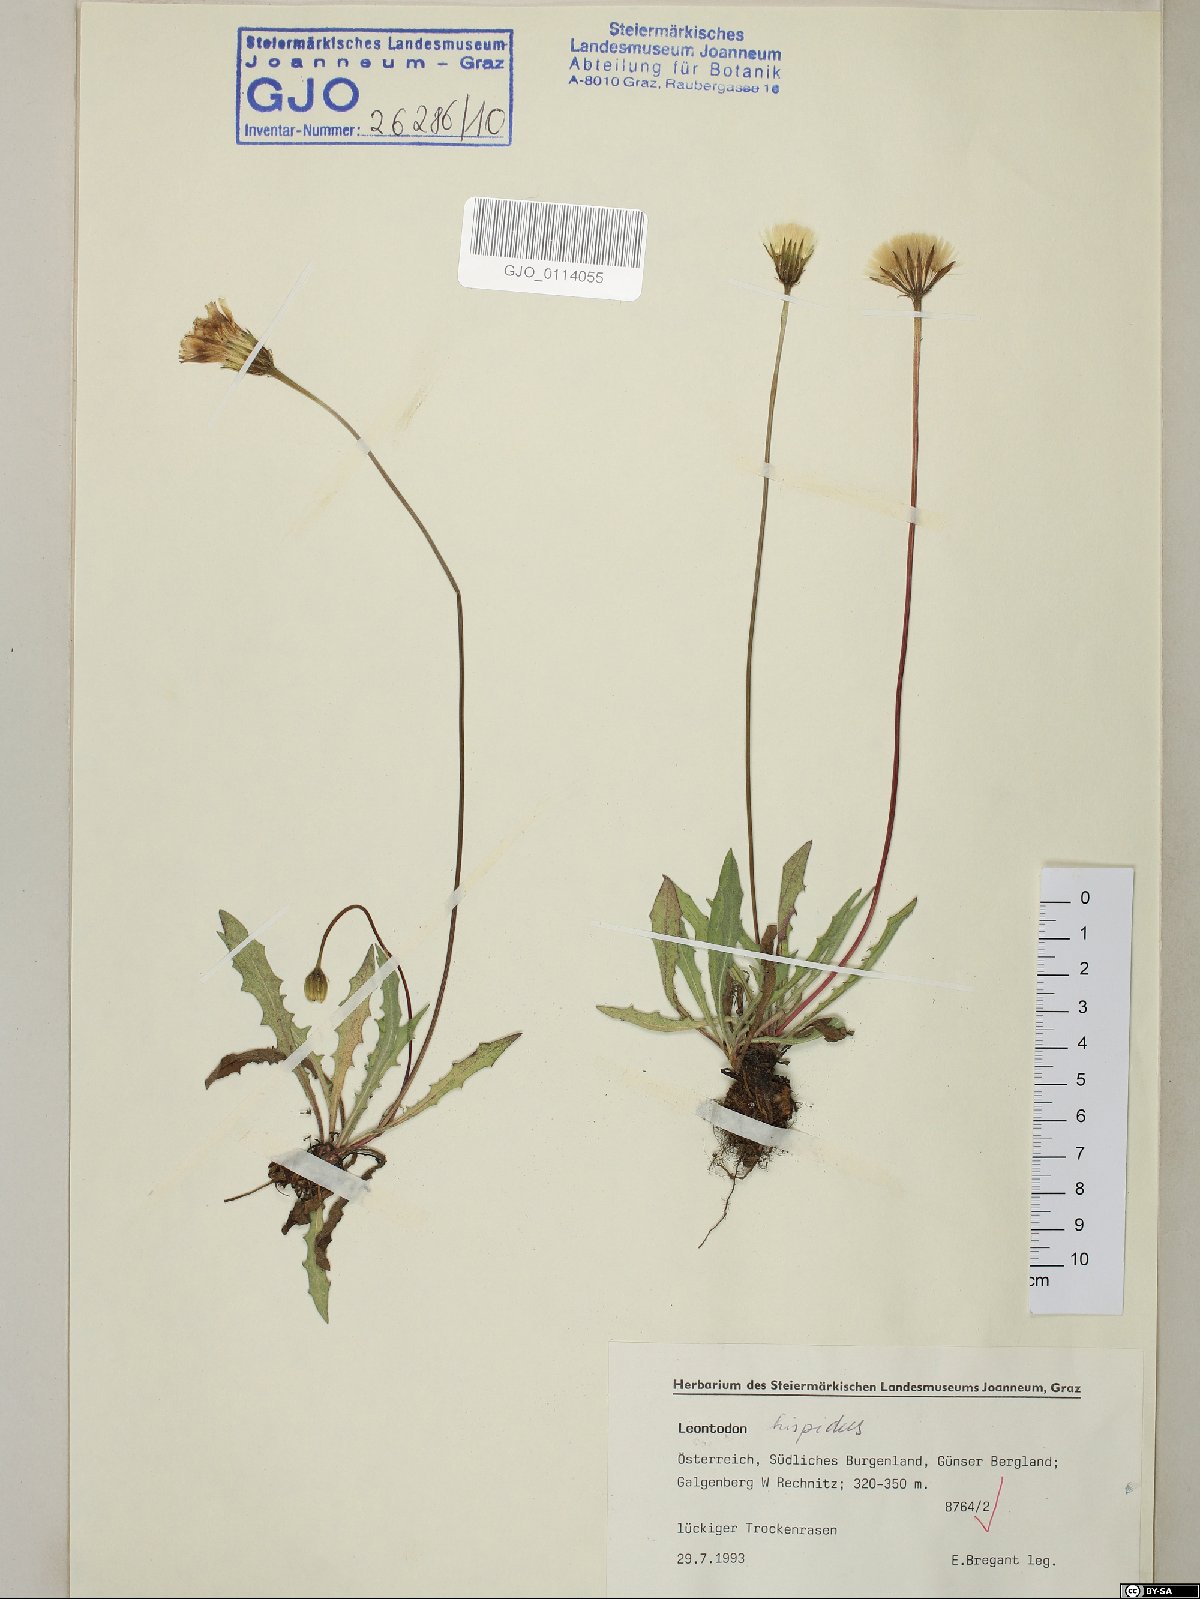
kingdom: Plantae
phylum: Tracheophyta
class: Magnoliopsida
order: Asterales
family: Asteraceae
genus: Leontodon
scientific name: Leontodon hispidus
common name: Rough hawkbit
